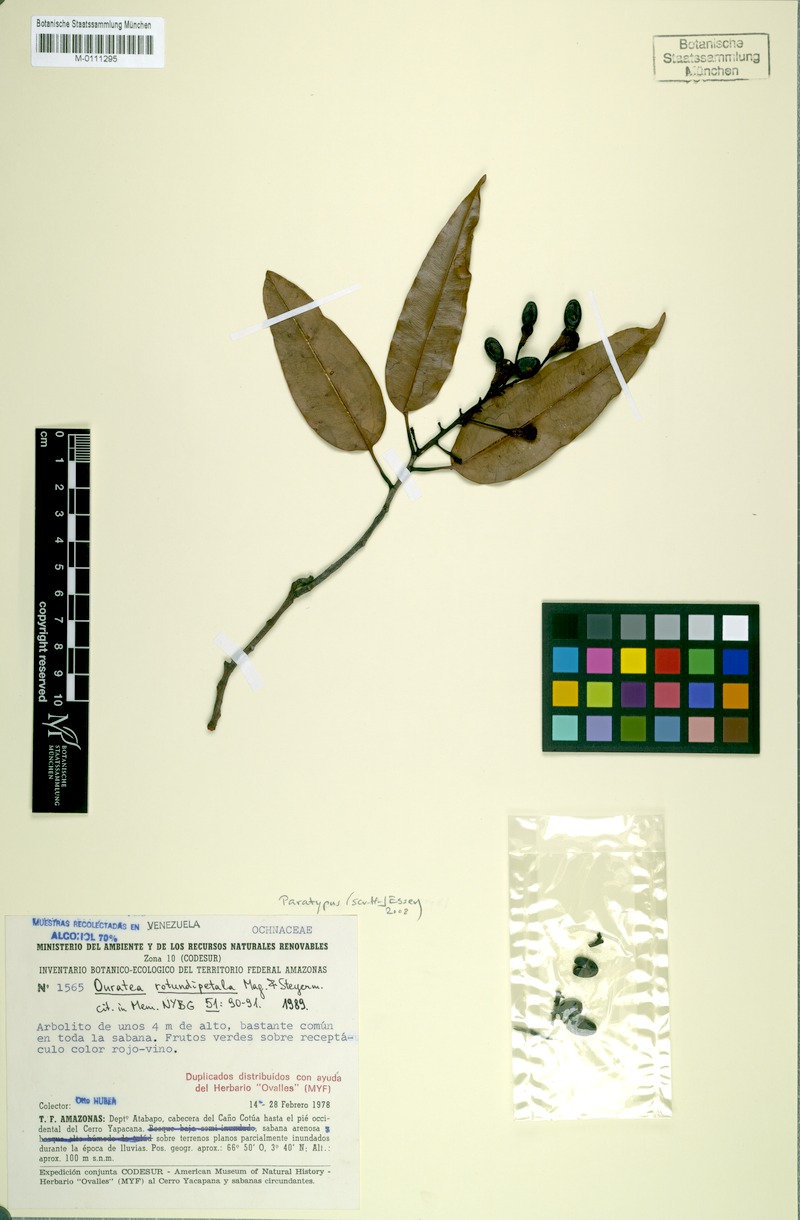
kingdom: Plantae
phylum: Tracheophyta
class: Magnoliopsida
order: Malpighiales
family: Ochnaceae
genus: Ouratea
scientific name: Ouratea rotundipetala
